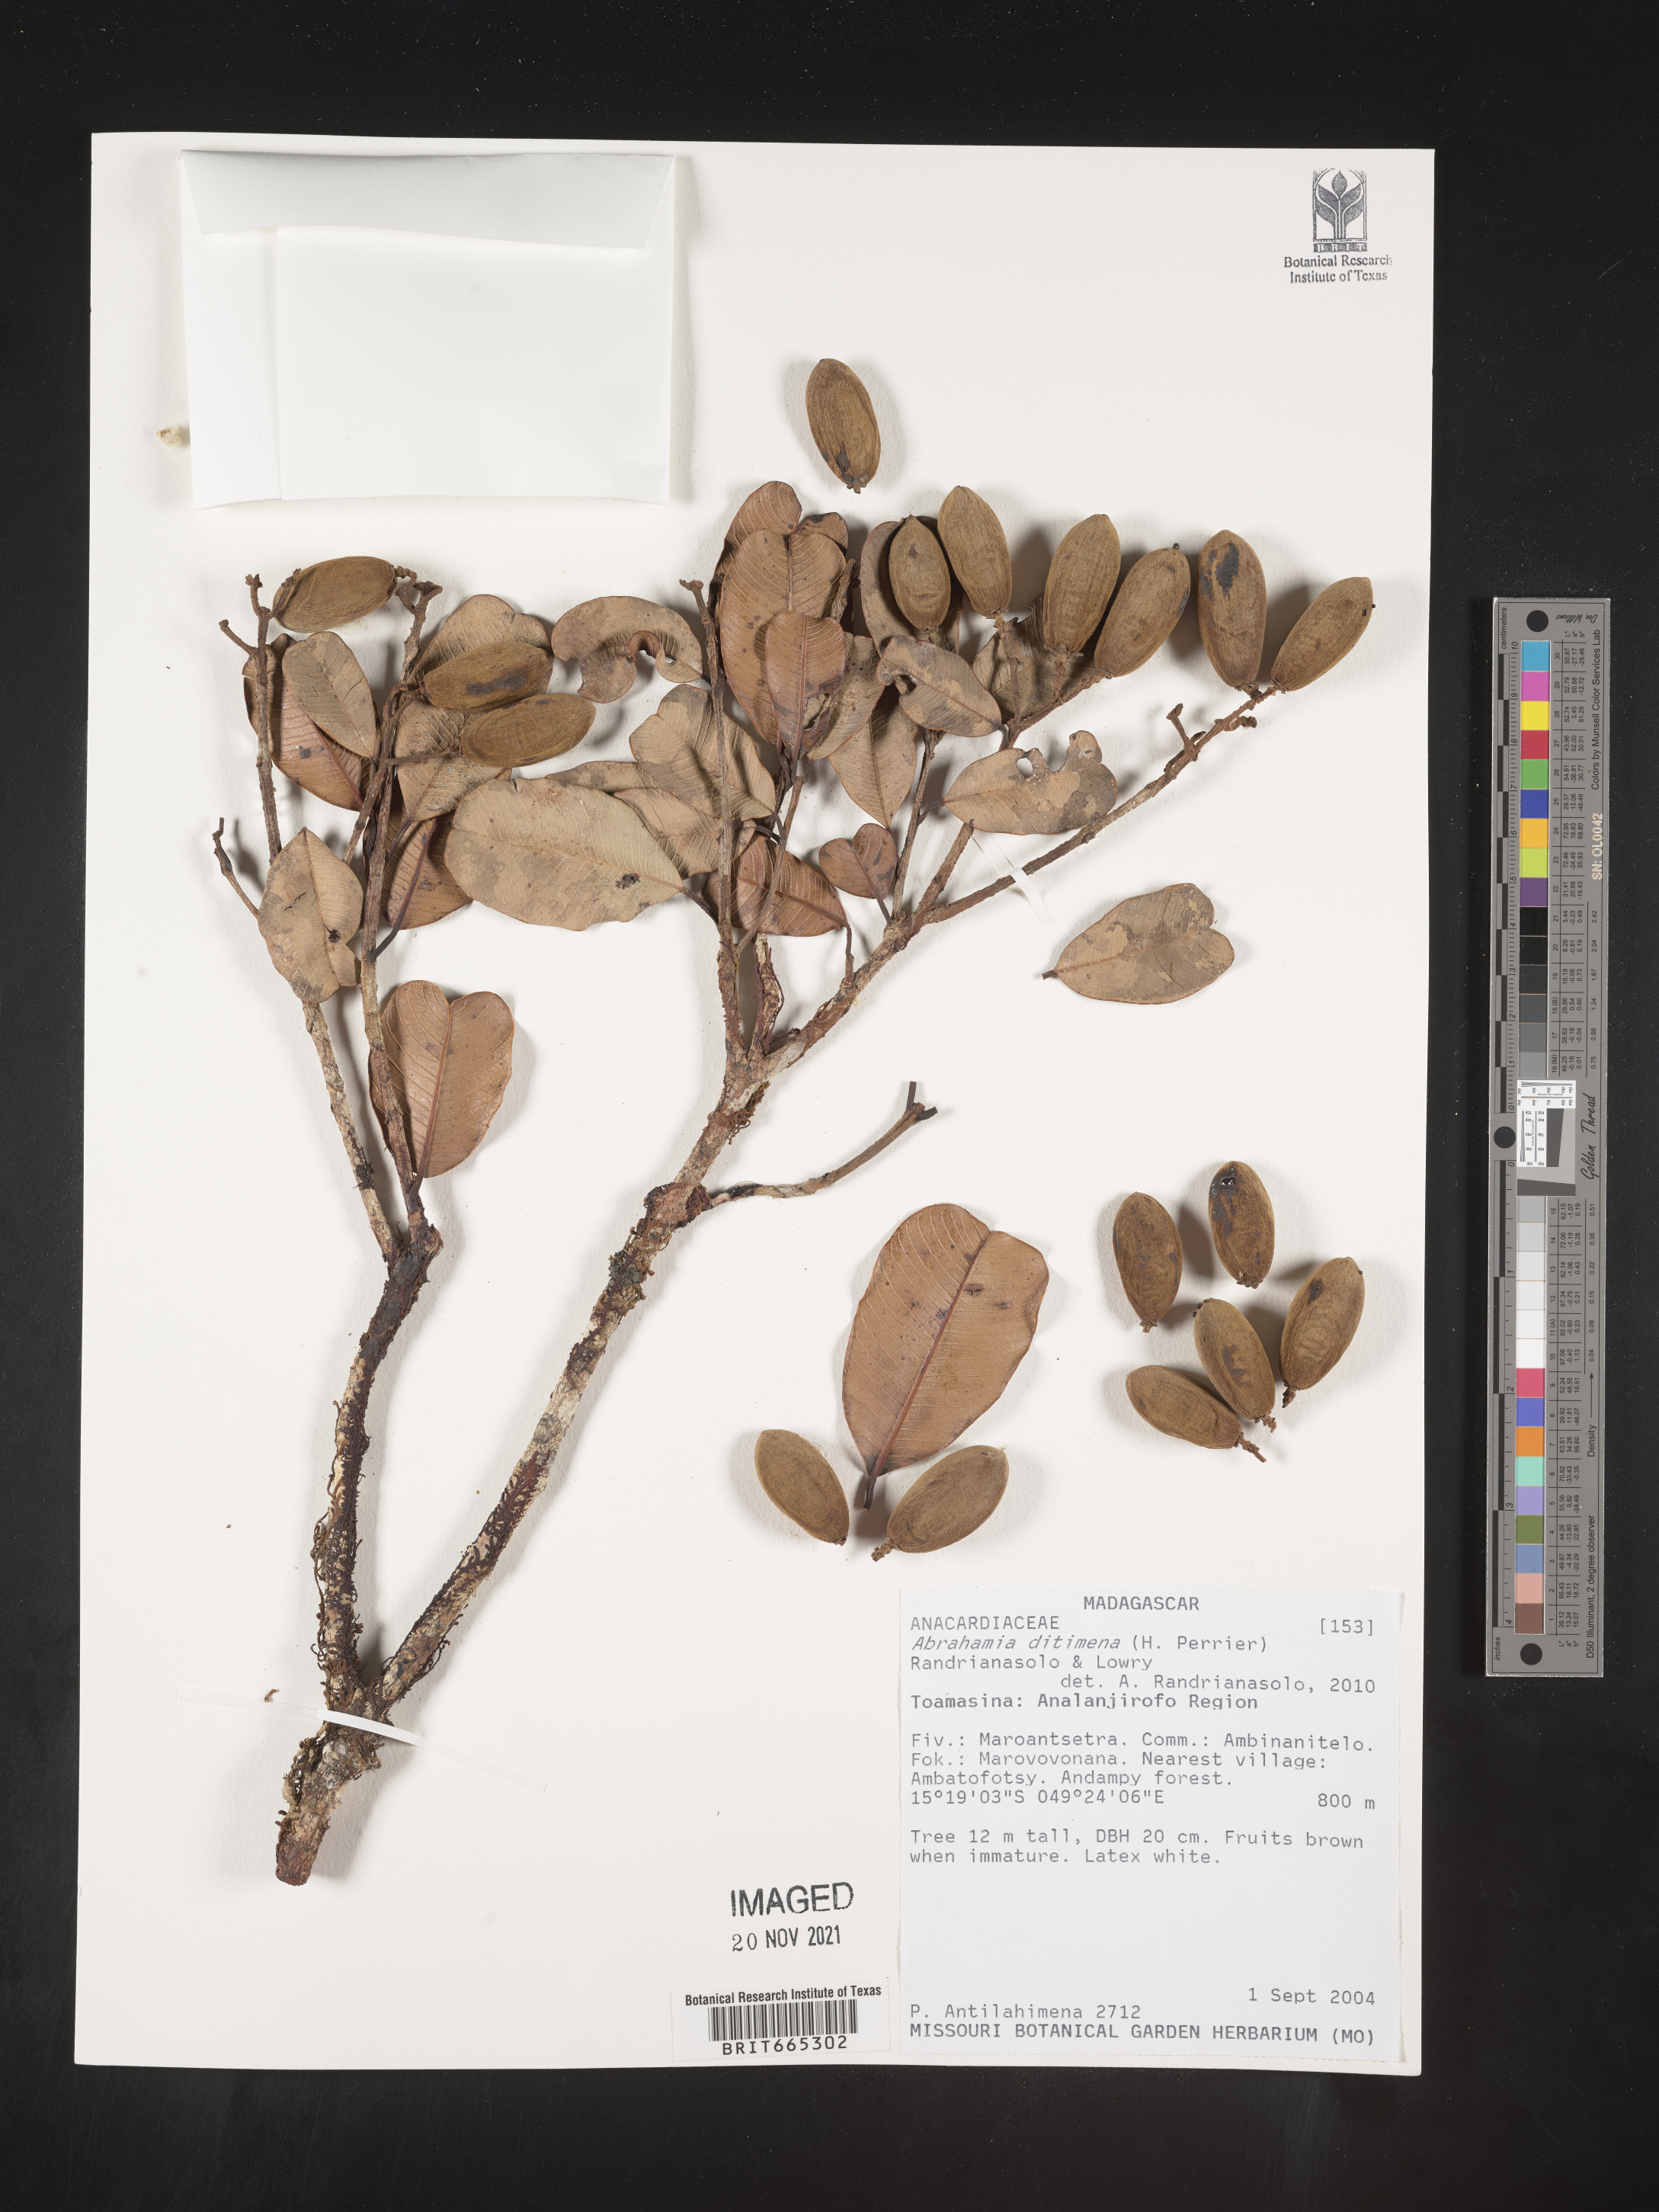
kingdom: Plantae
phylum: Tracheophyta
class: Magnoliopsida
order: Sapindales
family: Anacardiaceae
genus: Abrahamia
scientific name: Abrahamia
